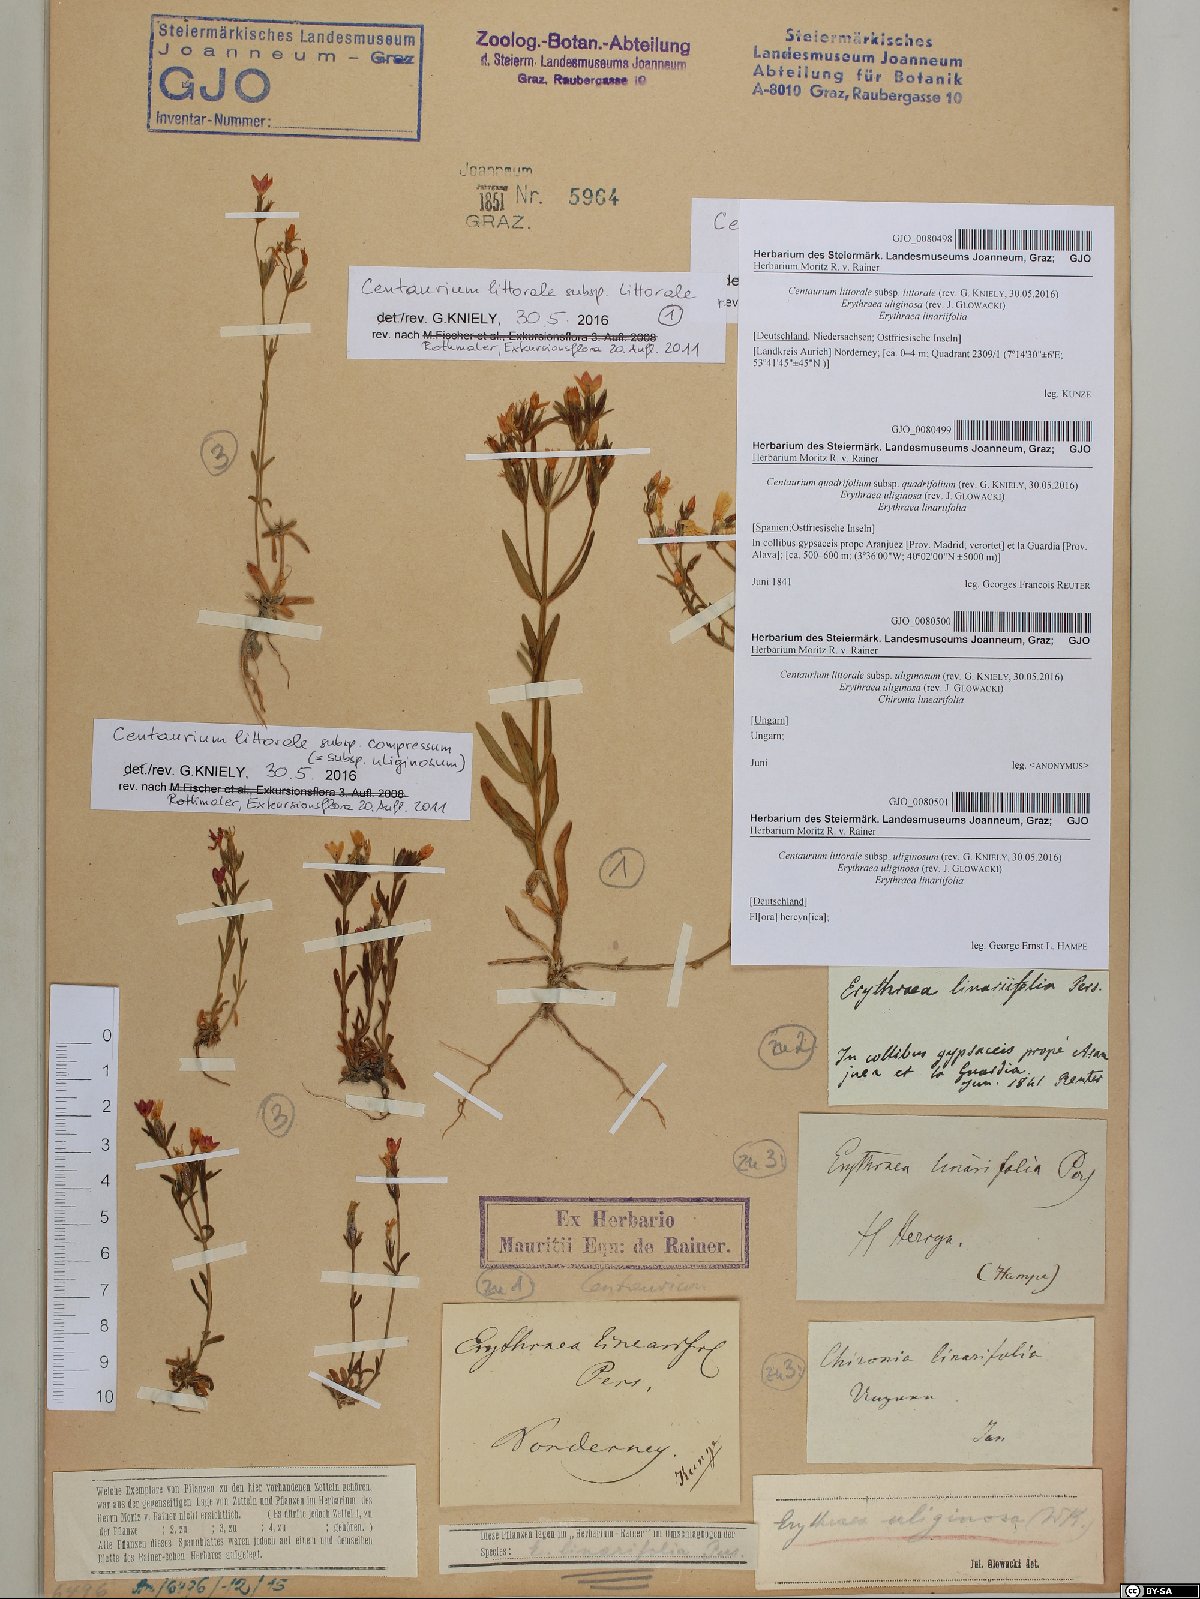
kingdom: Plantae
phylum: Tracheophyta
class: Magnoliopsida
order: Gentianales
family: Gentianaceae
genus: Centaurium
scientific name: Centaurium littorale
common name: Seaside centaury
